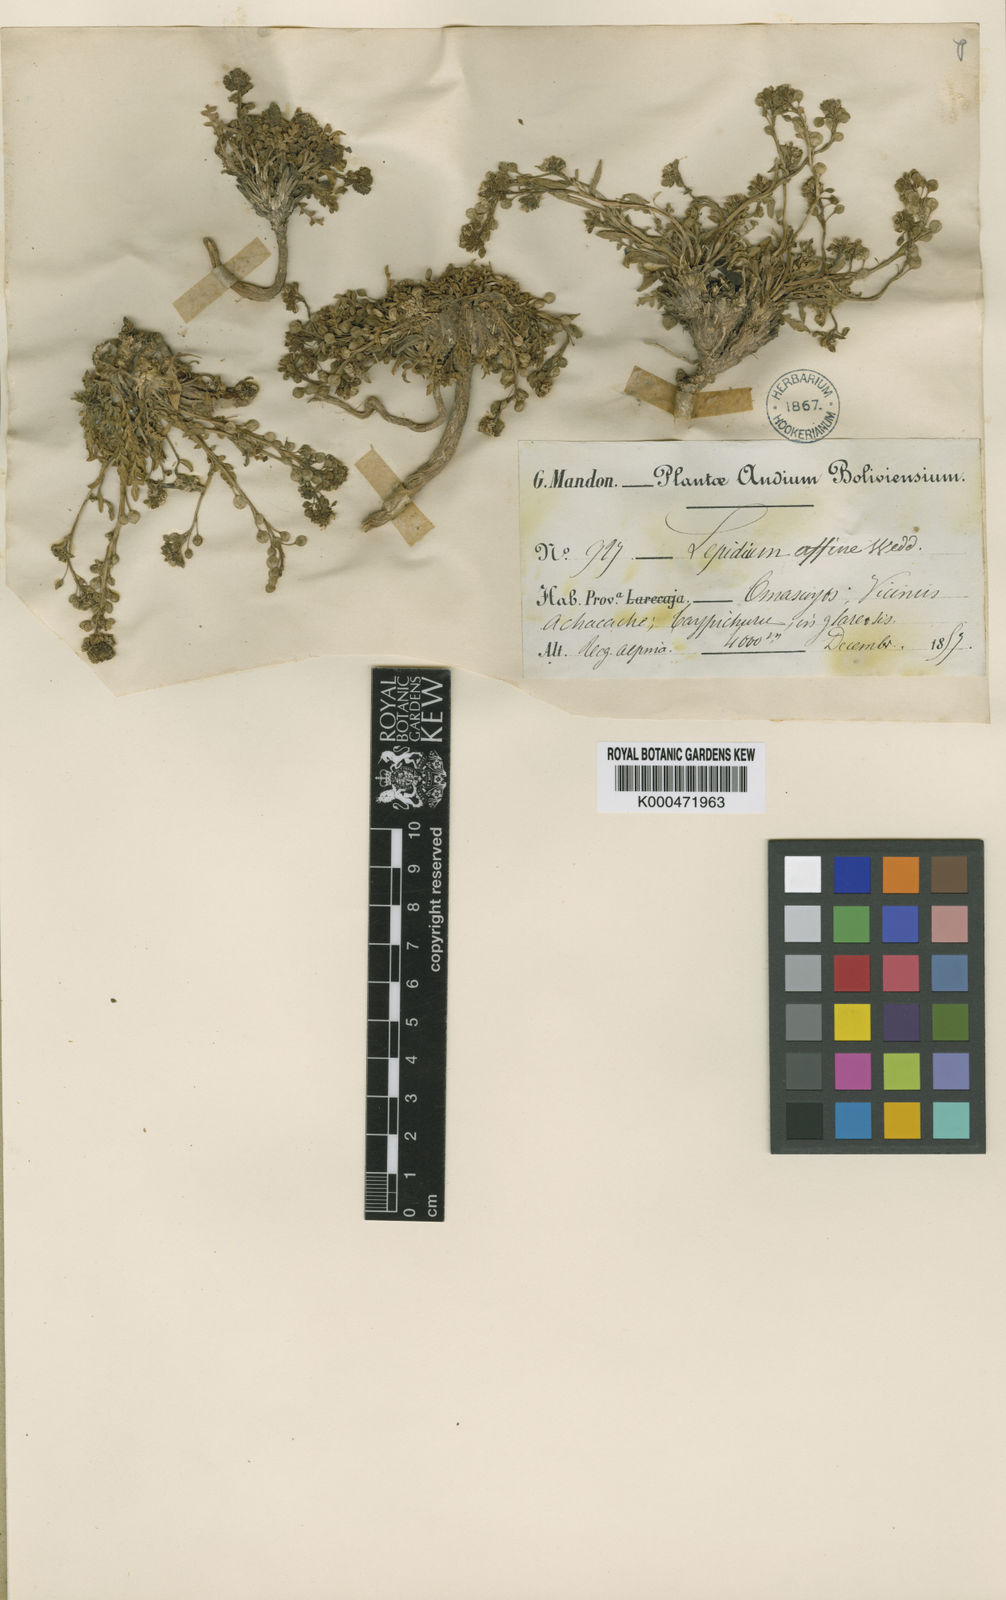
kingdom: Plantae
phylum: Tracheophyta
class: Magnoliopsida
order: Brassicales
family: Brassicaceae
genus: Lepidium
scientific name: Lepidium meyenii
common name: Peruvian-ginseng
